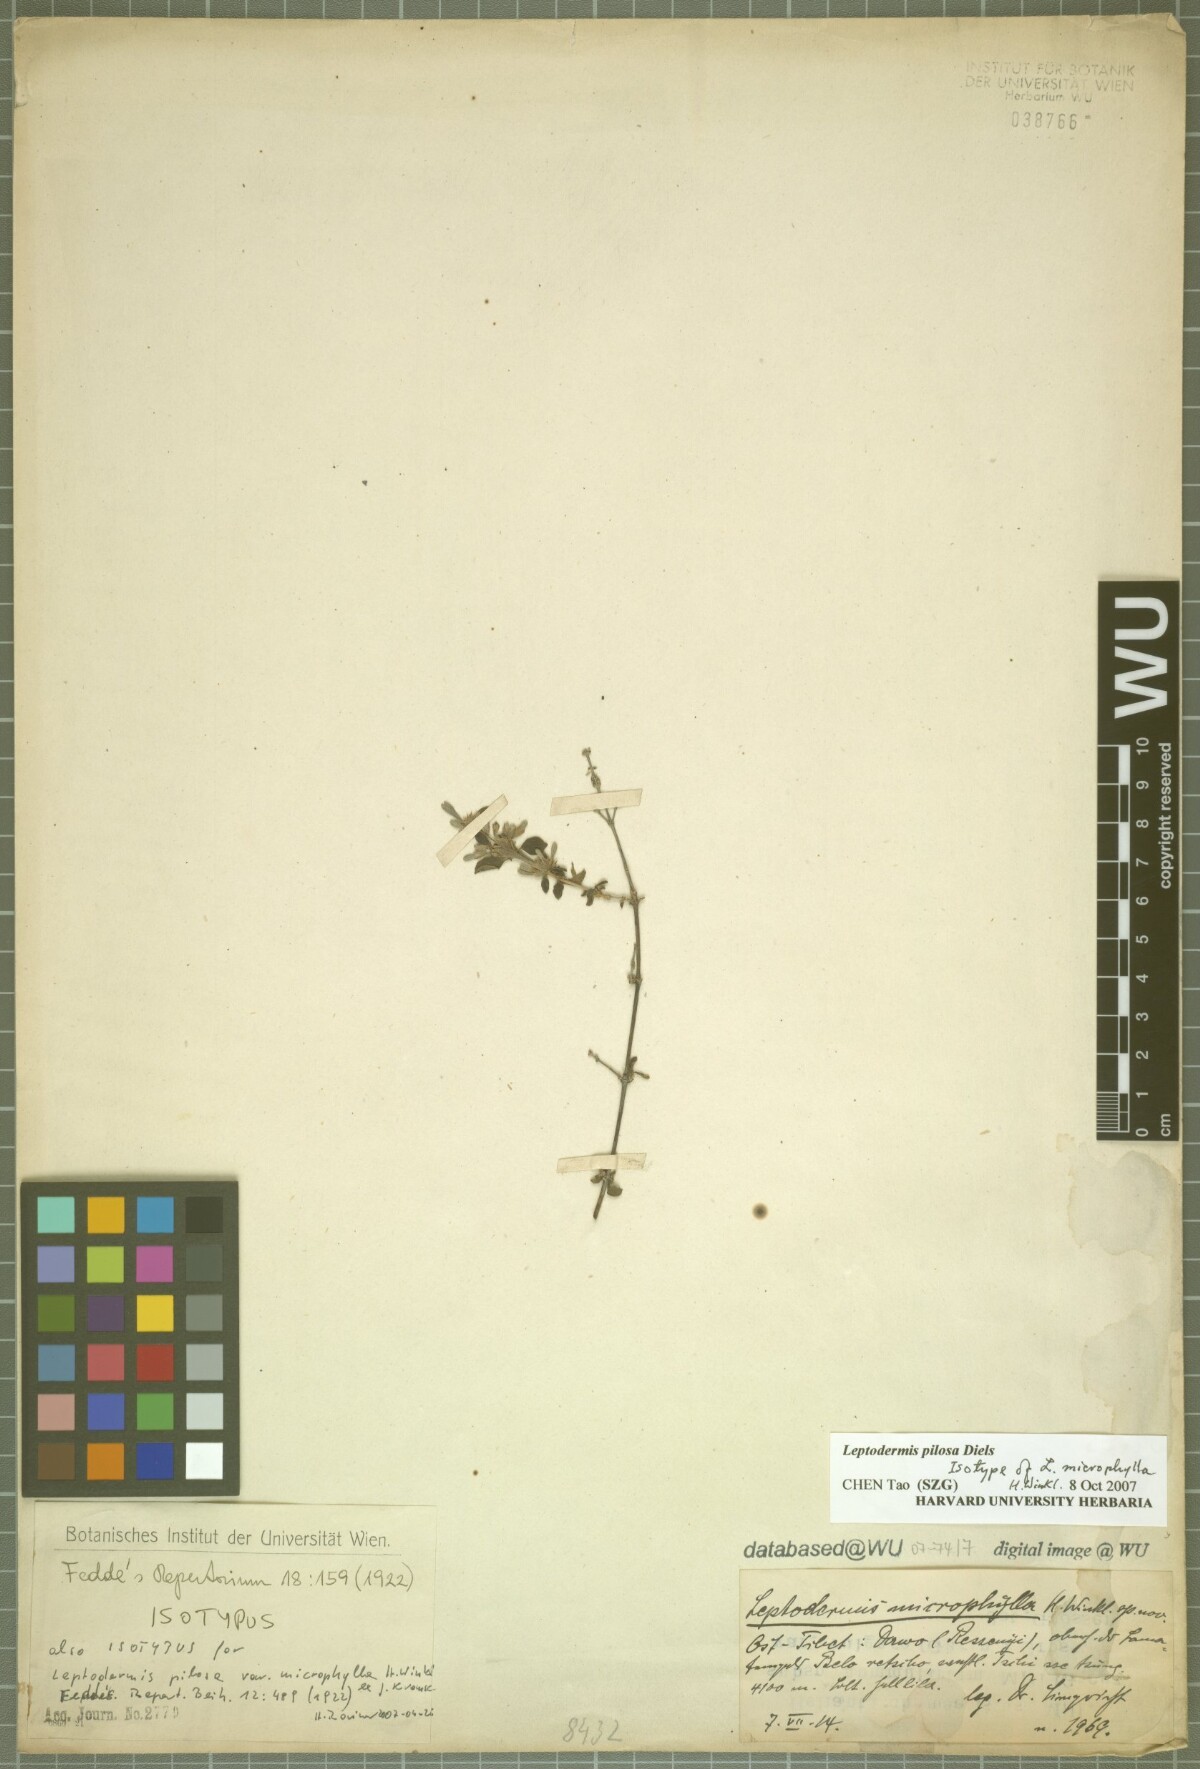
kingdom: Plantae
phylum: Tracheophyta
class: Magnoliopsida
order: Gentianales
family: Rubiaceae
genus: Leptodermis
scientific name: Leptodermis pilosa
